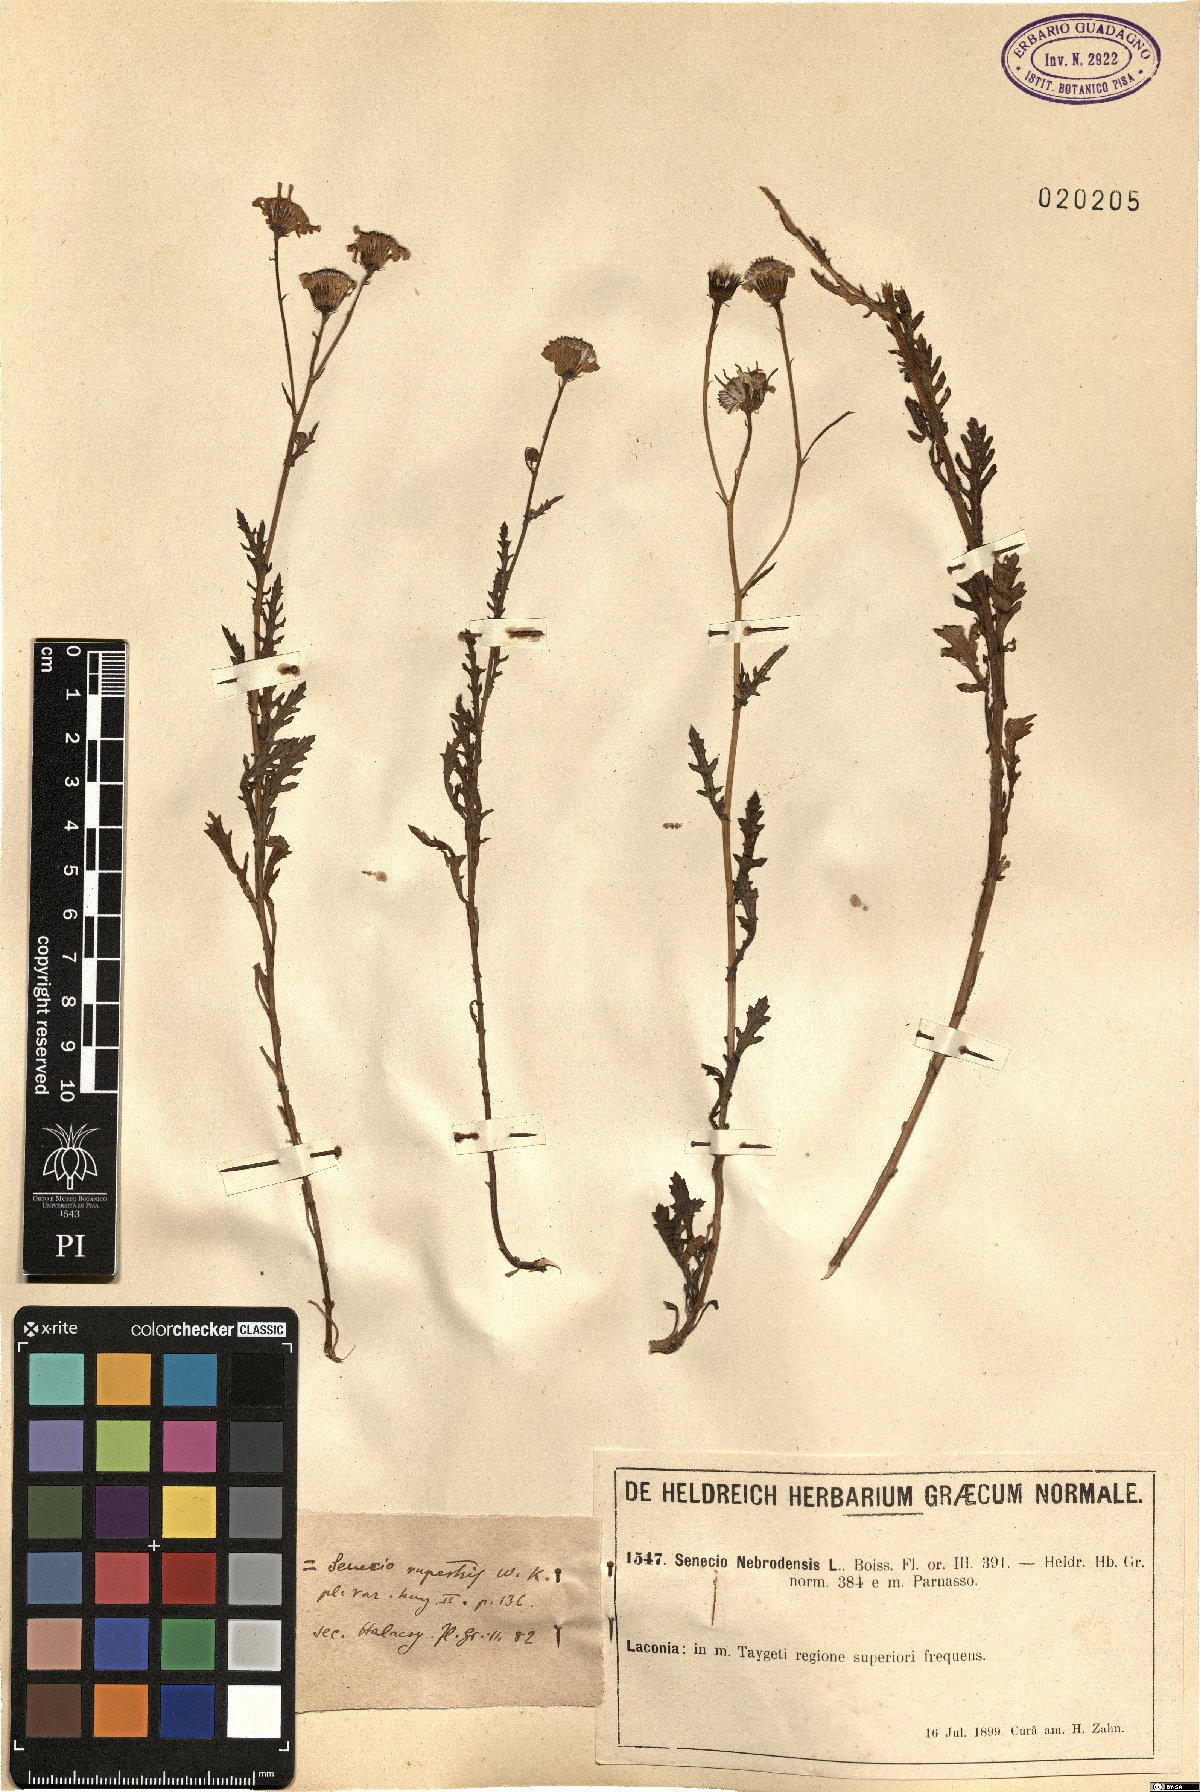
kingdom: Plantae
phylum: Tracheophyta
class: Magnoliopsida
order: Asterales
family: Asteraceae
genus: Senecio
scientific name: Senecio rupestris
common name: Rock ragwort
